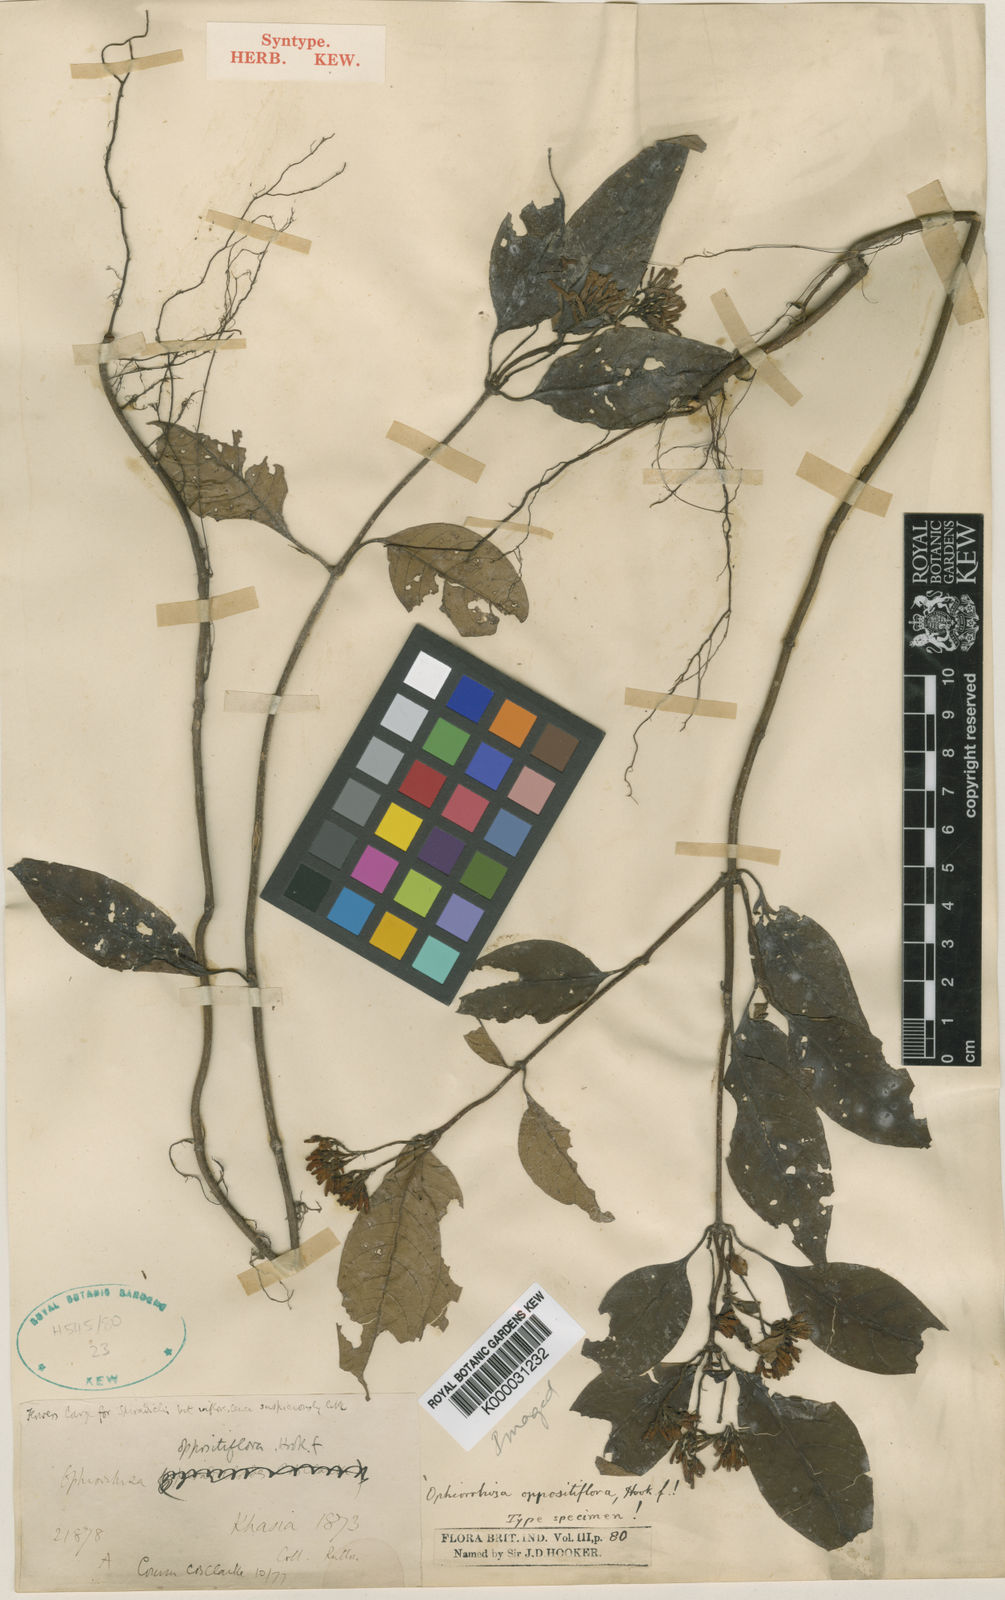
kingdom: Plantae
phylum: Tracheophyta
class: Magnoliopsida
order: Gentianales
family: Rubiaceae
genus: Ophiorrhiza
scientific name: Ophiorrhiza oppositiflora
